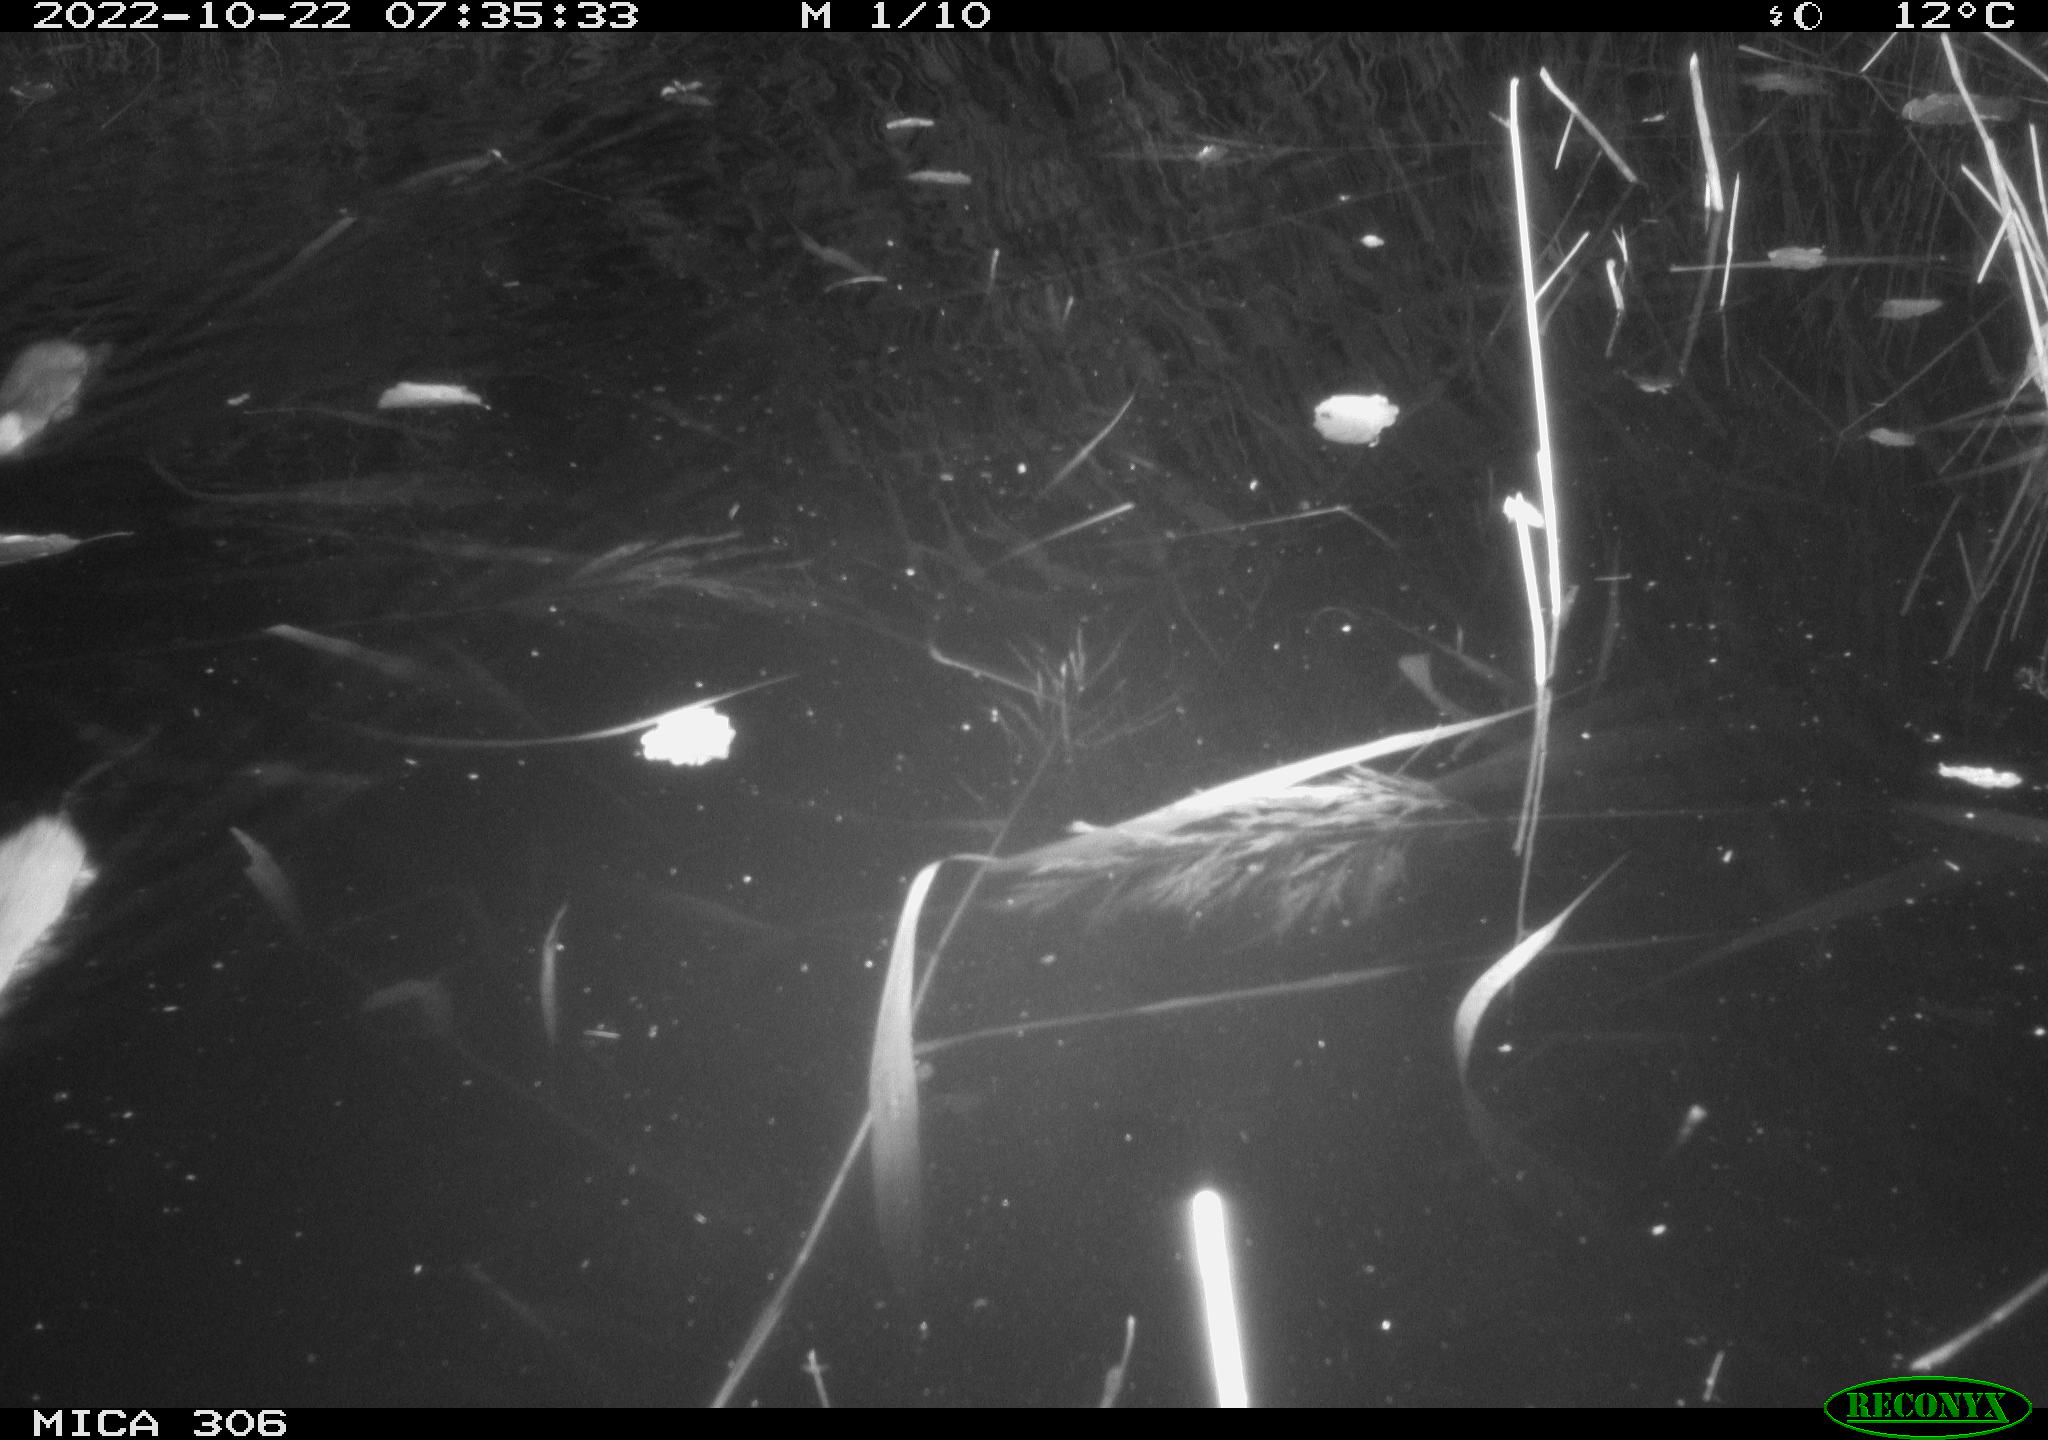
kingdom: Animalia
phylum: Chordata
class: Mammalia
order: Rodentia
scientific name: Rodentia
